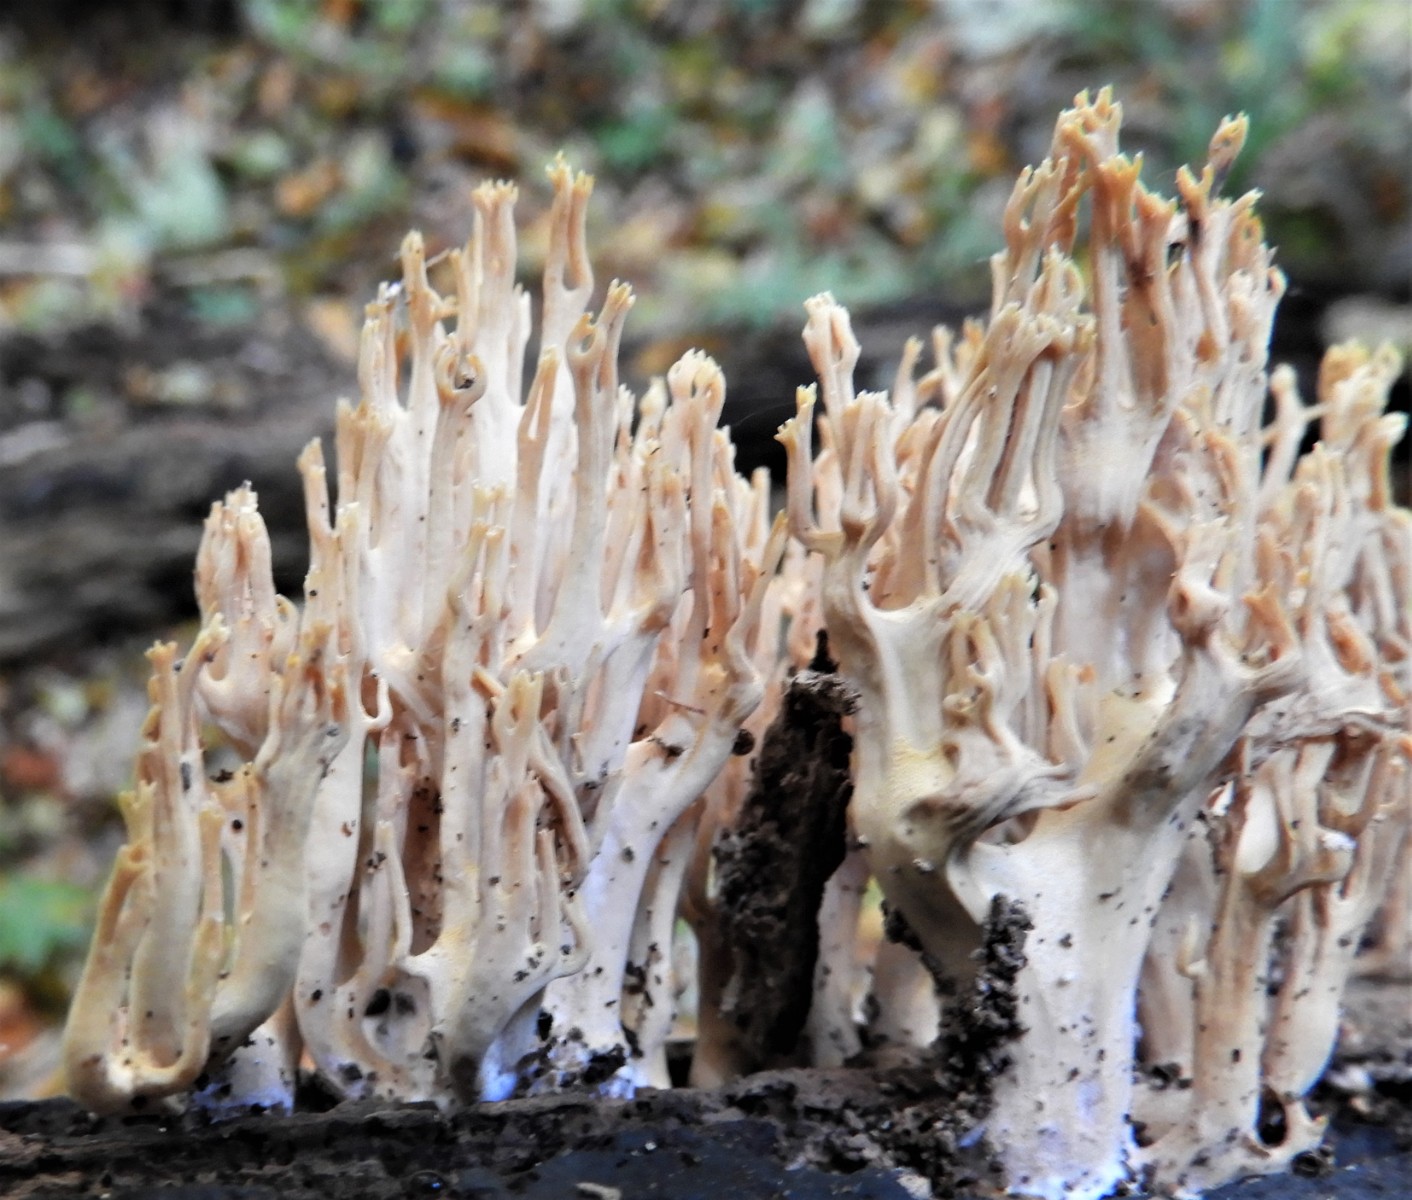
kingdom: Fungi
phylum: Basidiomycota
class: Agaricomycetes
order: Gomphales
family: Gomphaceae
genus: Ramaria
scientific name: Ramaria stricta
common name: rank koralsvamp
